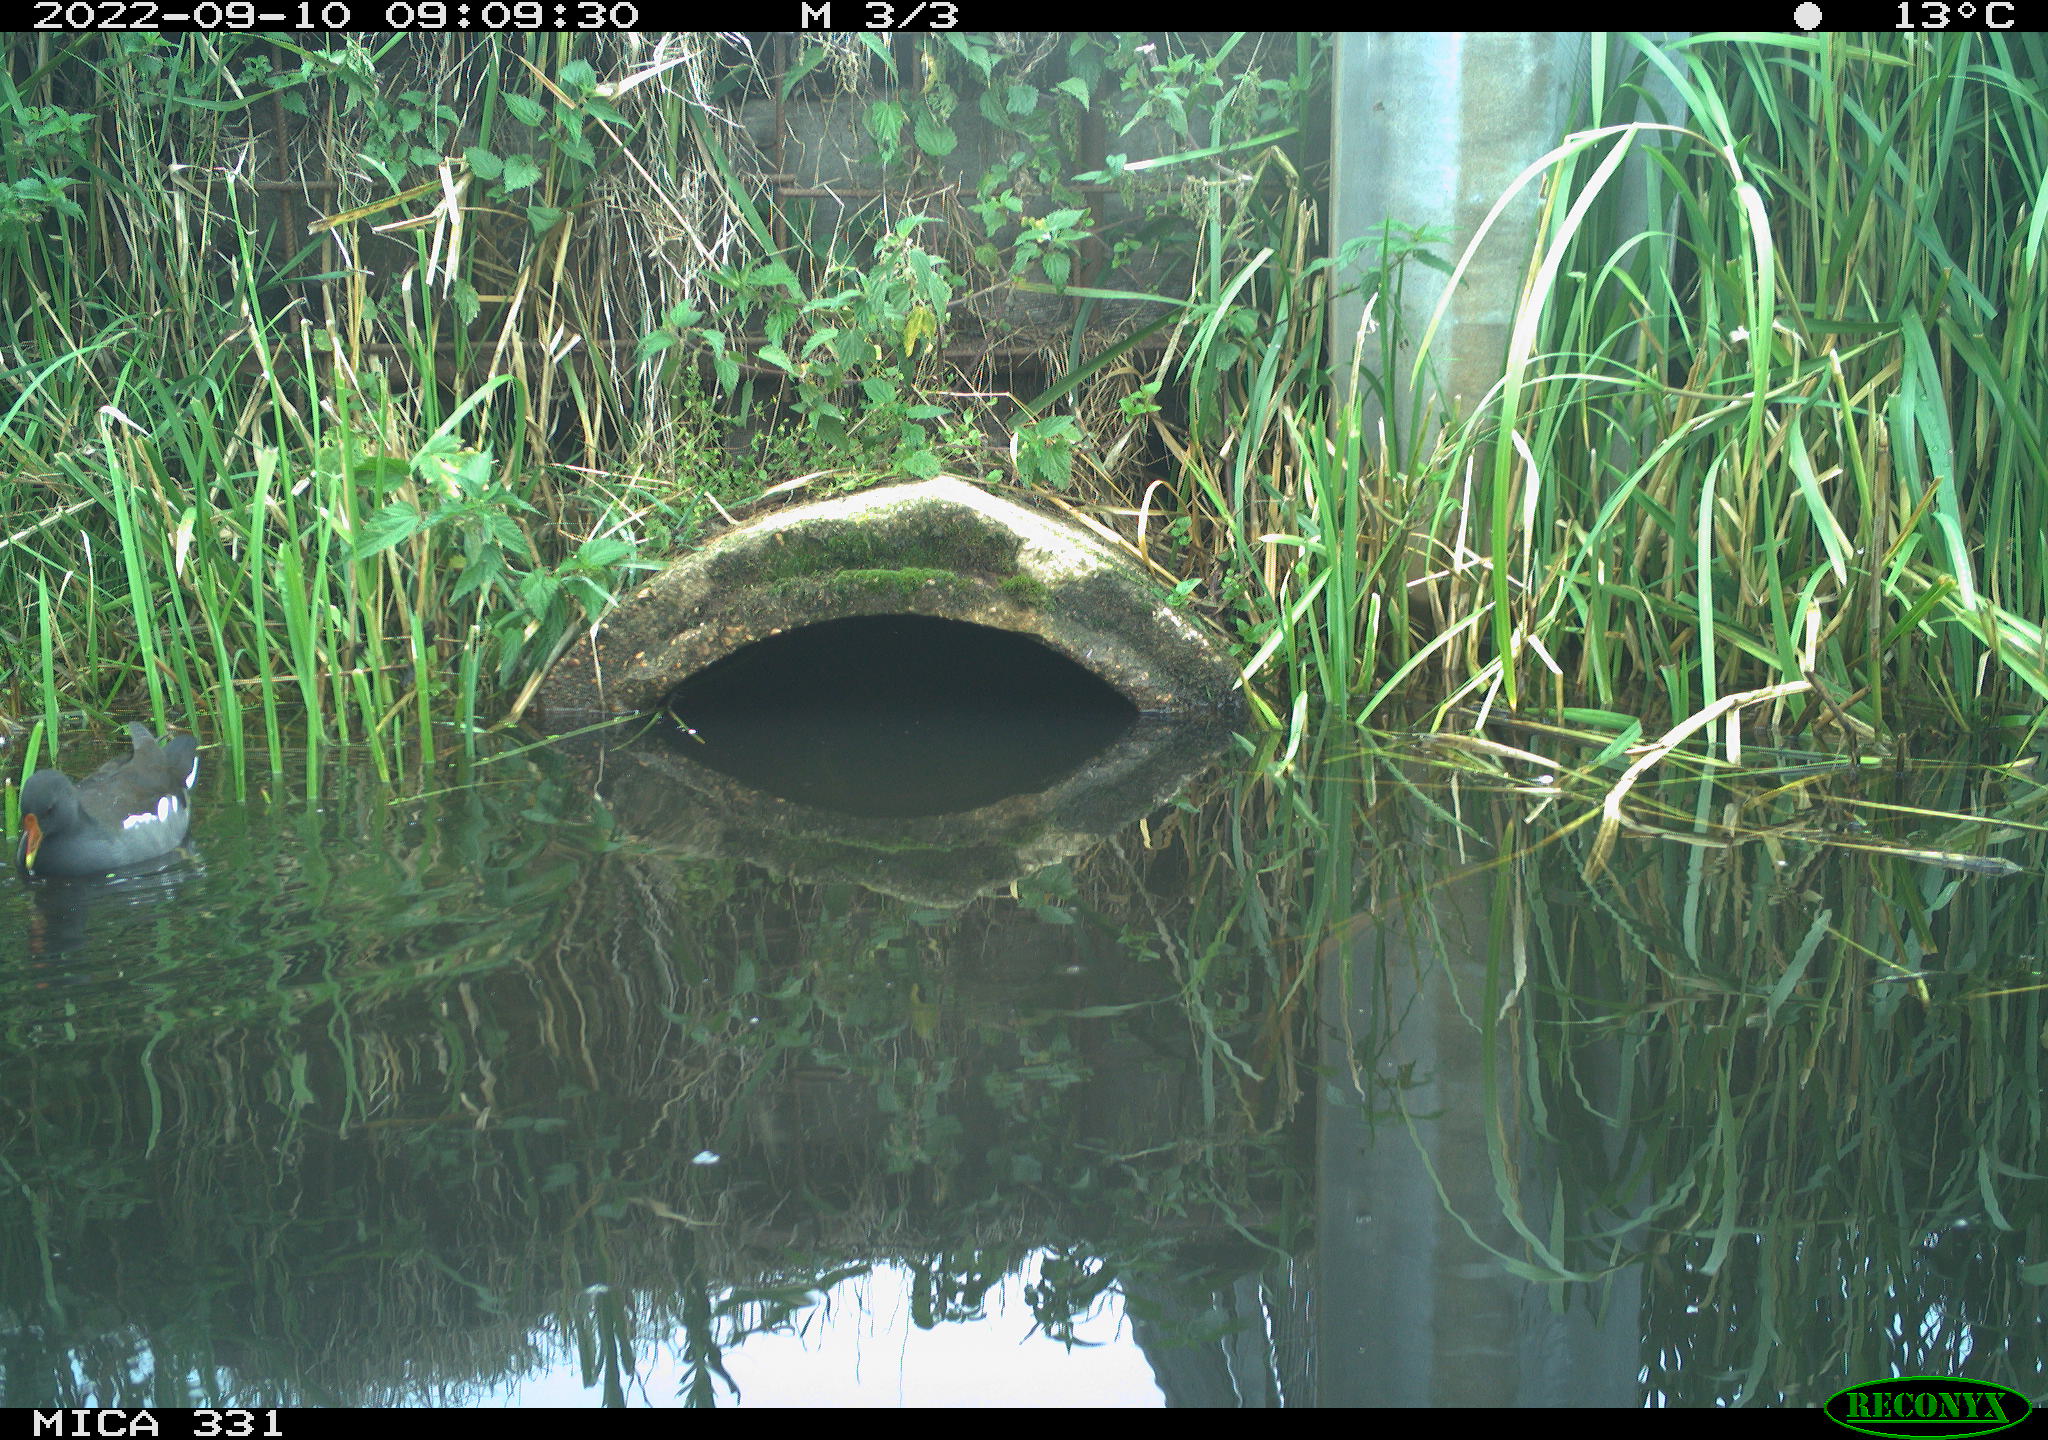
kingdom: Animalia
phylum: Chordata
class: Aves
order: Gruiformes
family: Rallidae
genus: Gallinula
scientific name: Gallinula chloropus
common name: Common moorhen
